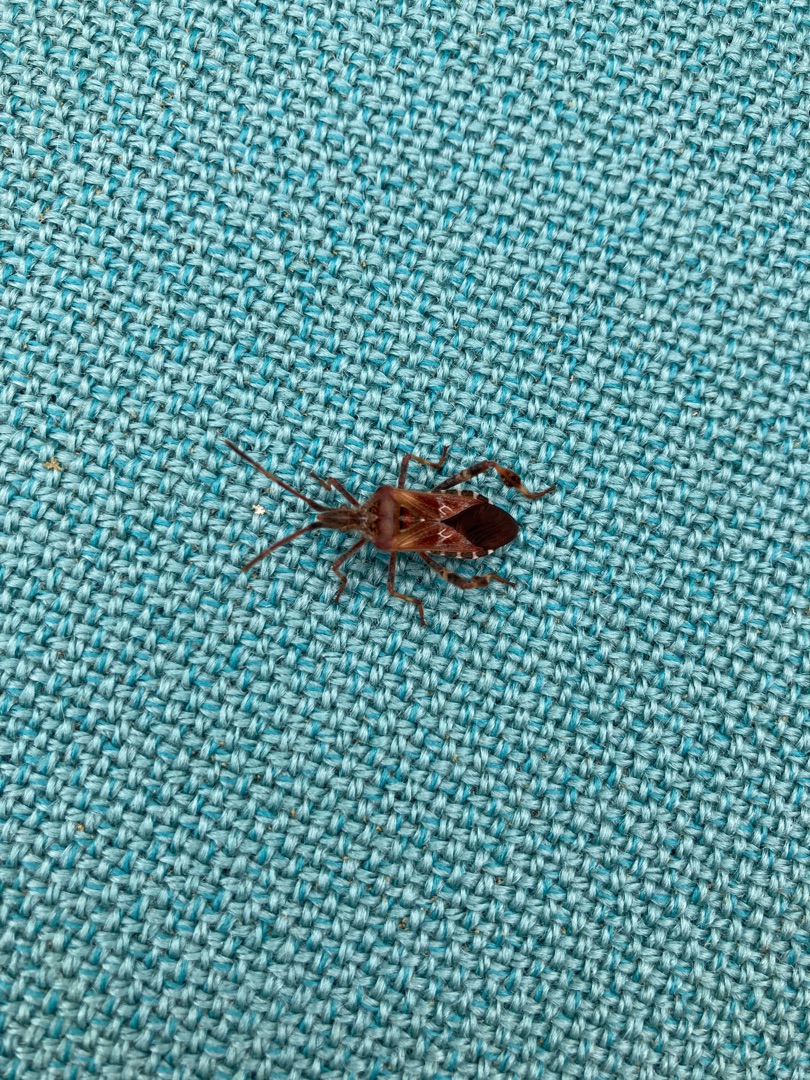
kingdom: Animalia
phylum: Arthropoda
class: Insecta
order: Hemiptera
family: Coreidae
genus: Leptoglossus
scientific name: Leptoglossus occidentalis
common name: Amerikansk fyrretæge
